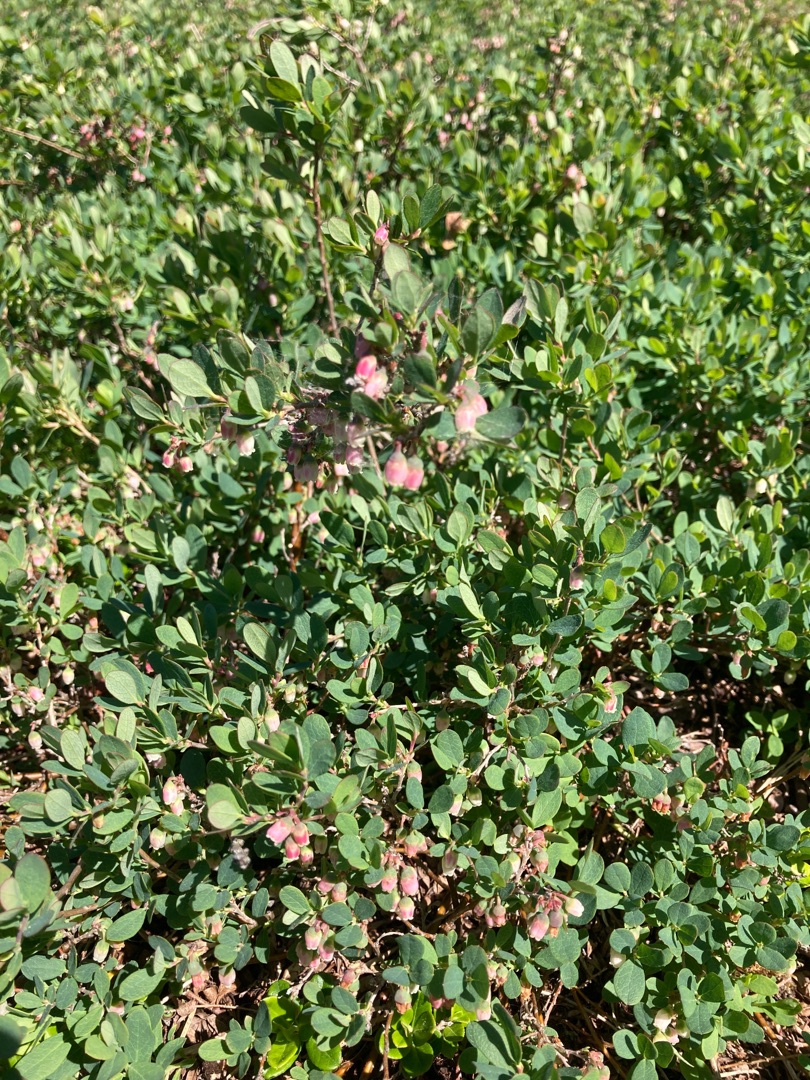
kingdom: Plantae
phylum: Tracheophyta
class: Magnoliopsida
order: Ericales
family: Ericaceae
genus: Vaccinium
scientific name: Vaccinium uliginosum
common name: Mose-bølle
